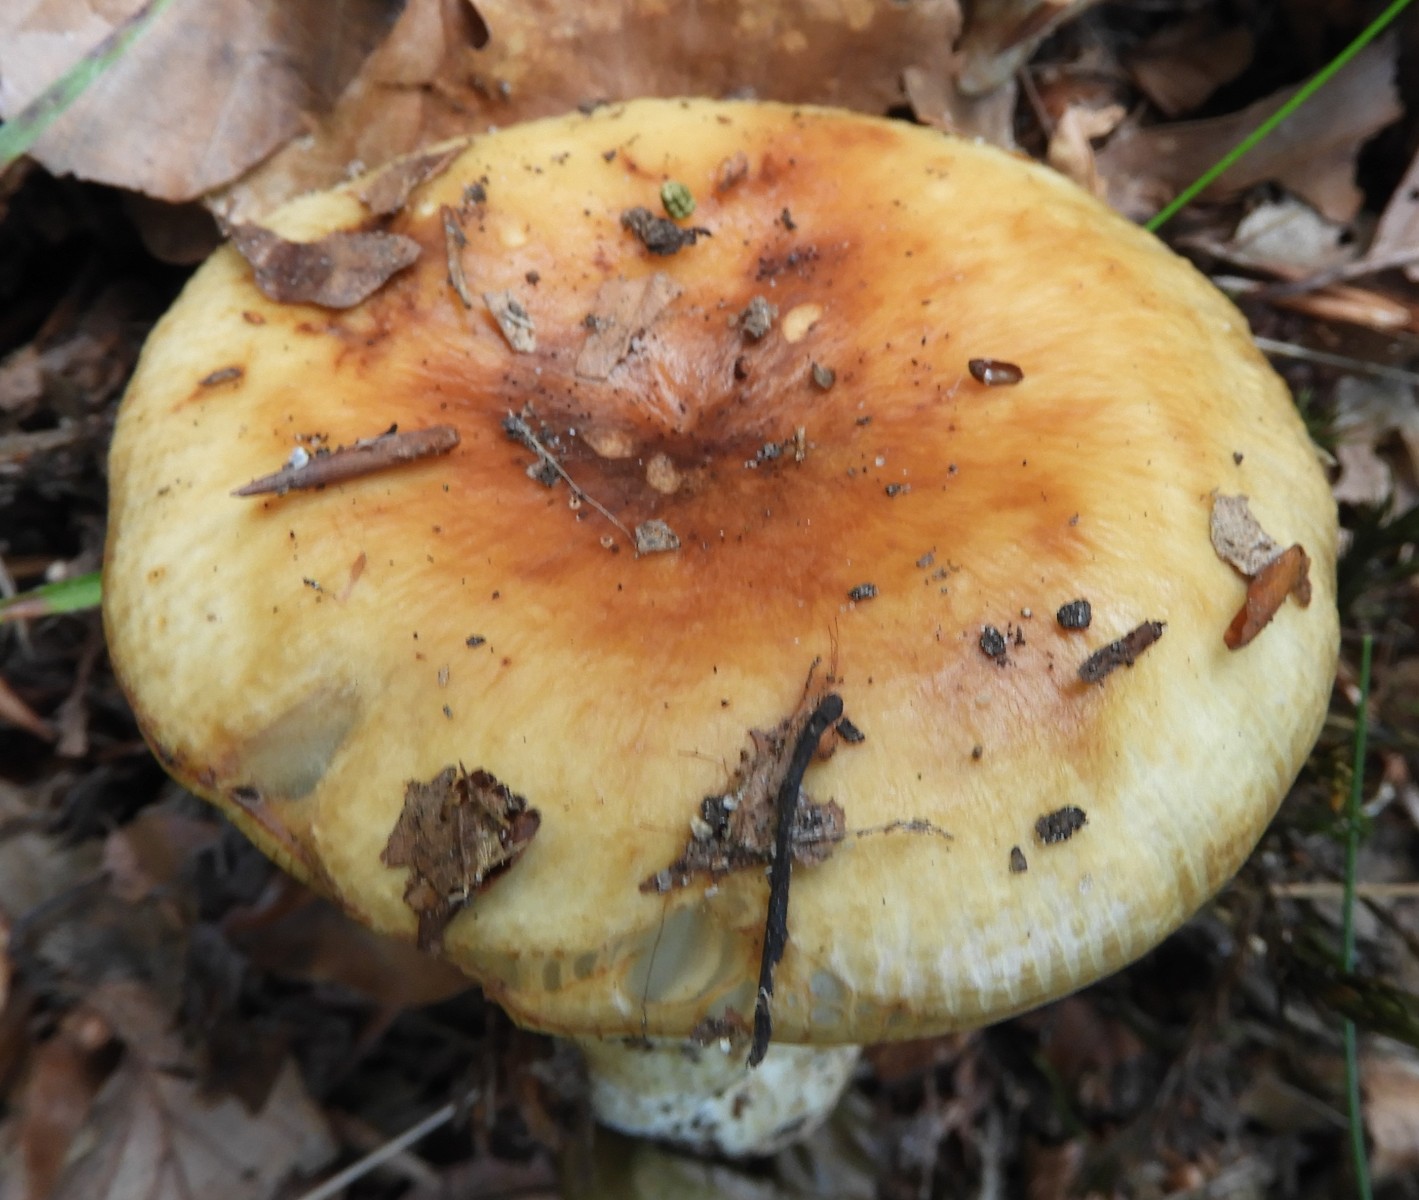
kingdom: Fungi
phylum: Basidiomycota
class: Agaricomycetes
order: Russulales
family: Russulaceae
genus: Russula
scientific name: Russula grata
